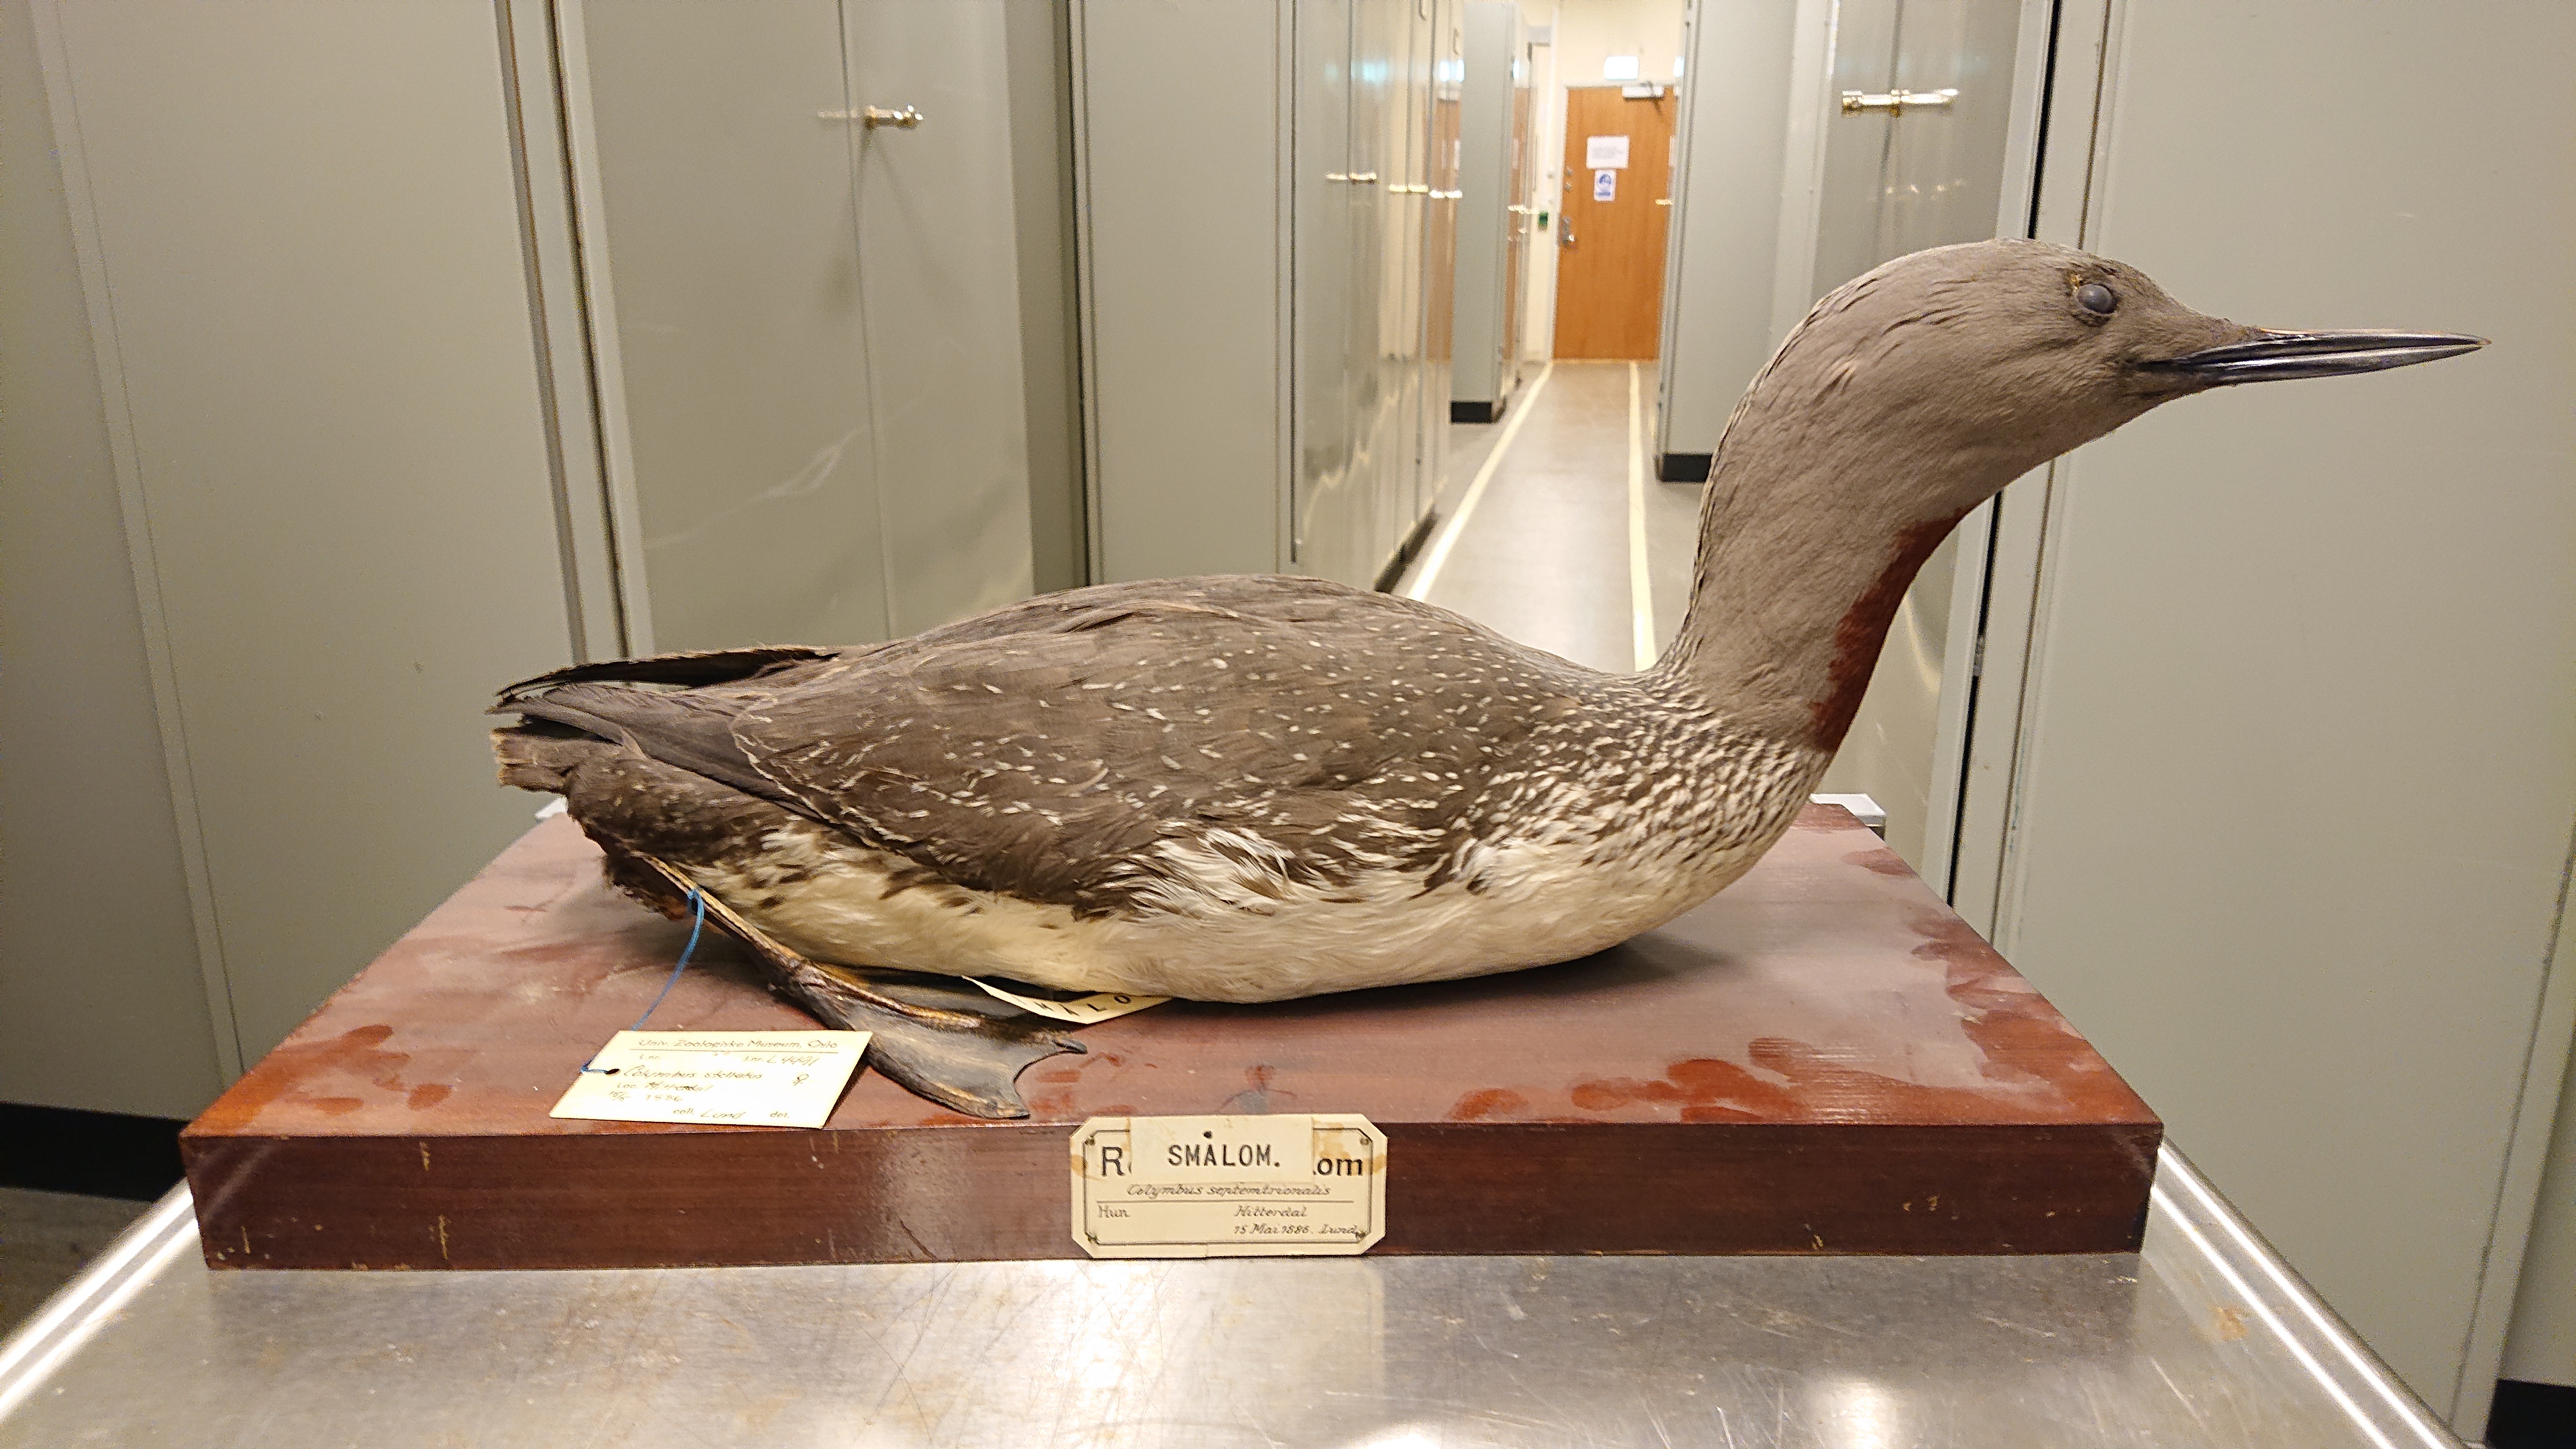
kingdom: Animalia
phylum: Chordata
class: Aves
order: Gaviiformes
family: Gaviidae
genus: Gavia
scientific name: Gavia stellata
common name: Red-throated loon
